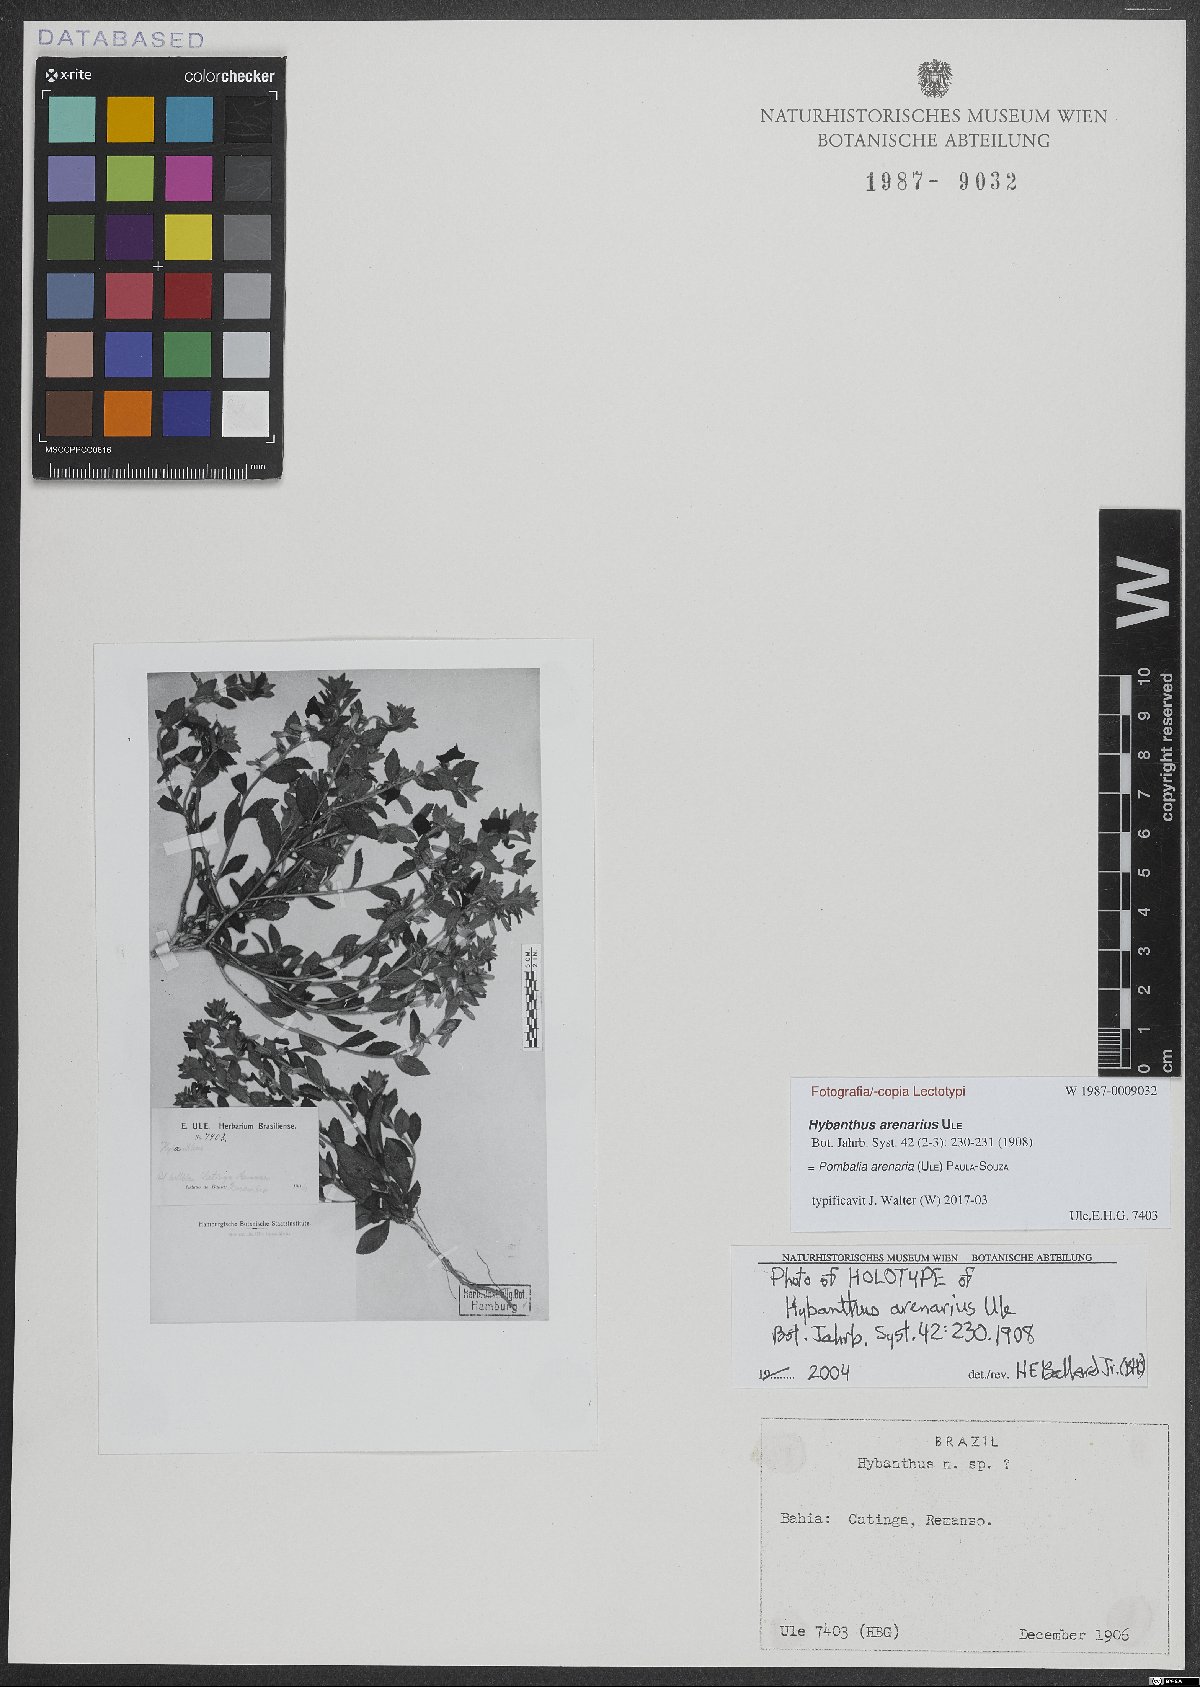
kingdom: Plantae
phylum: Tracheophyta
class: Magnoliopsida
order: Malpighiales
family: Violaceae
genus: Pombalia
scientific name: Pombalia arenaria
